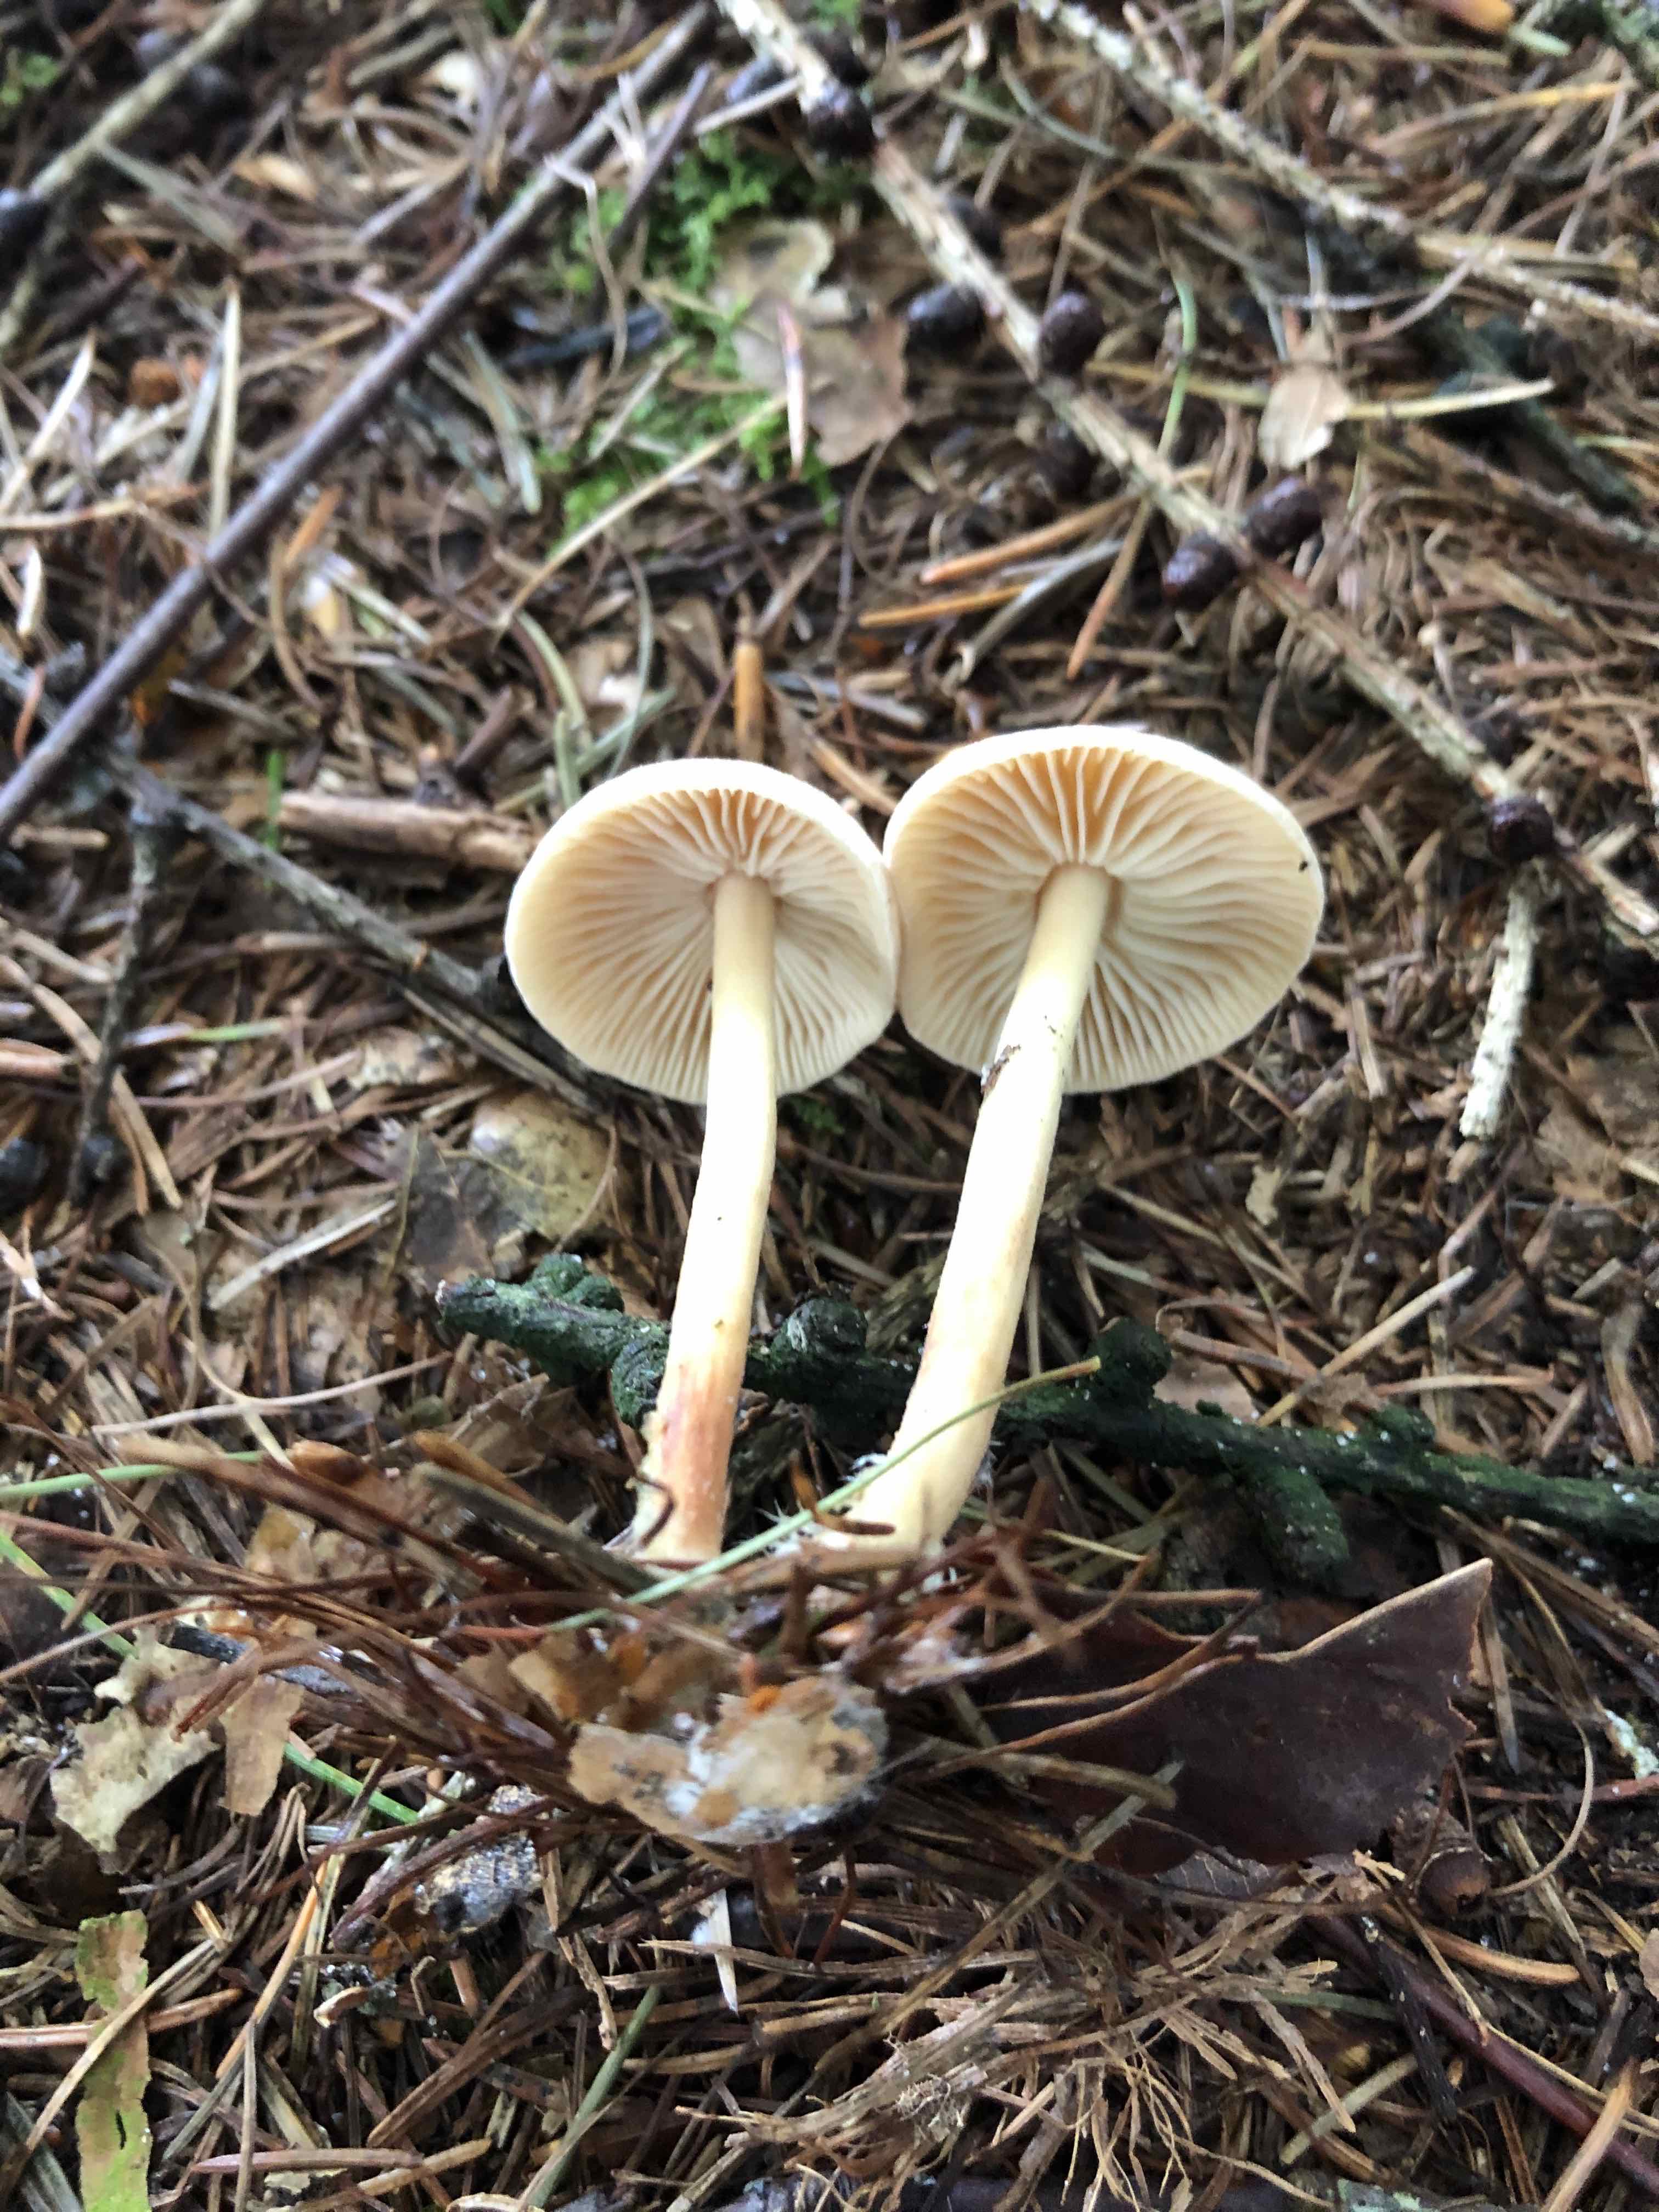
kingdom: Fungi
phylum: Basidiomycota
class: Agaricomycetes
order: Agaricales
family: Omphalotaceae
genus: Collybiopsis
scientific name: Collybiopsis peronata
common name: bestøvlet fladhat
